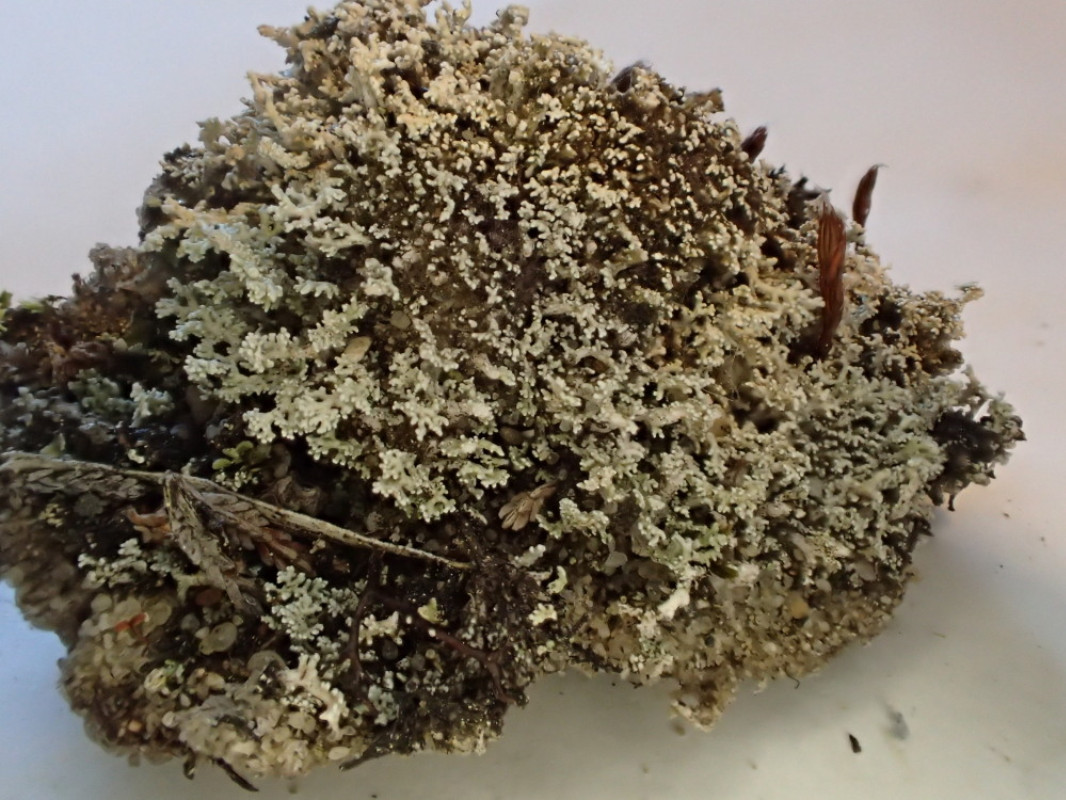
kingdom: Fungi
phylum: Ascomycota
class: Lecanoromycetes
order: Lecanorales
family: Stereocaulaceae
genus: Stereocaulon
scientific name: Stereocaulon condensatum
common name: lav korallav
